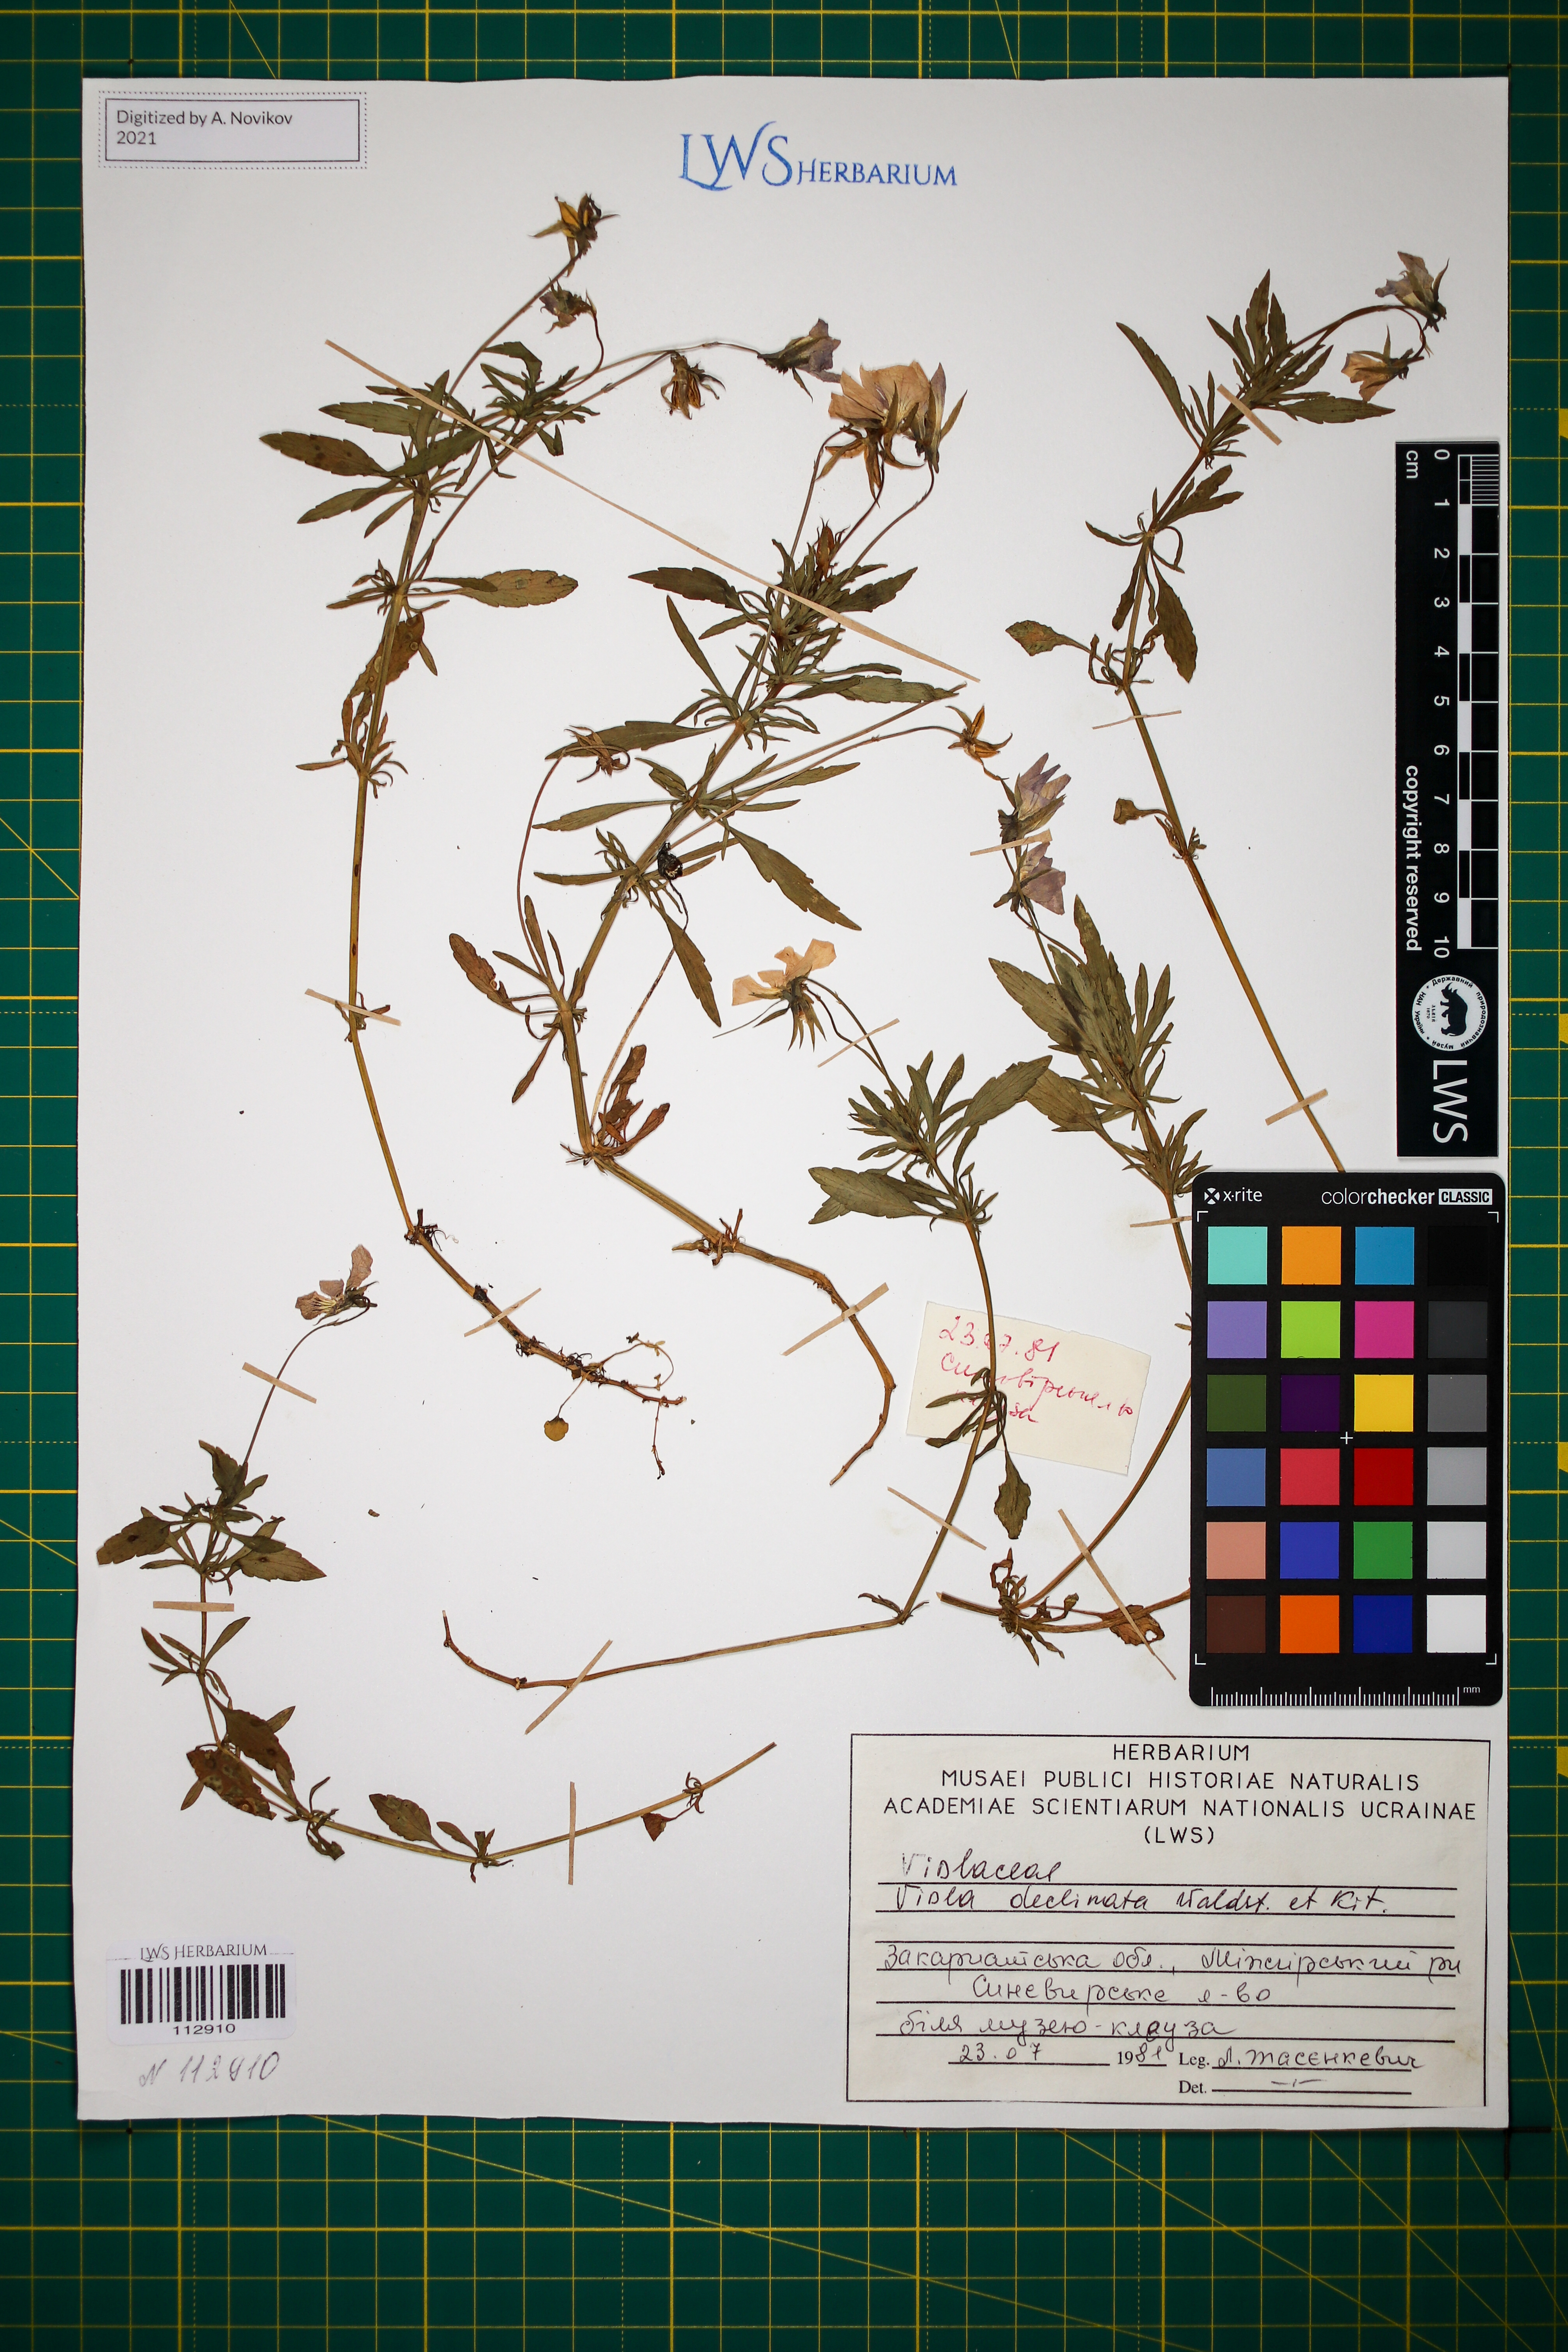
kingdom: Plantae
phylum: Tracheophyta
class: Magnoliopsida
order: Malpighiales
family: Violaceae
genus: Viola
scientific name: Viola declinata
